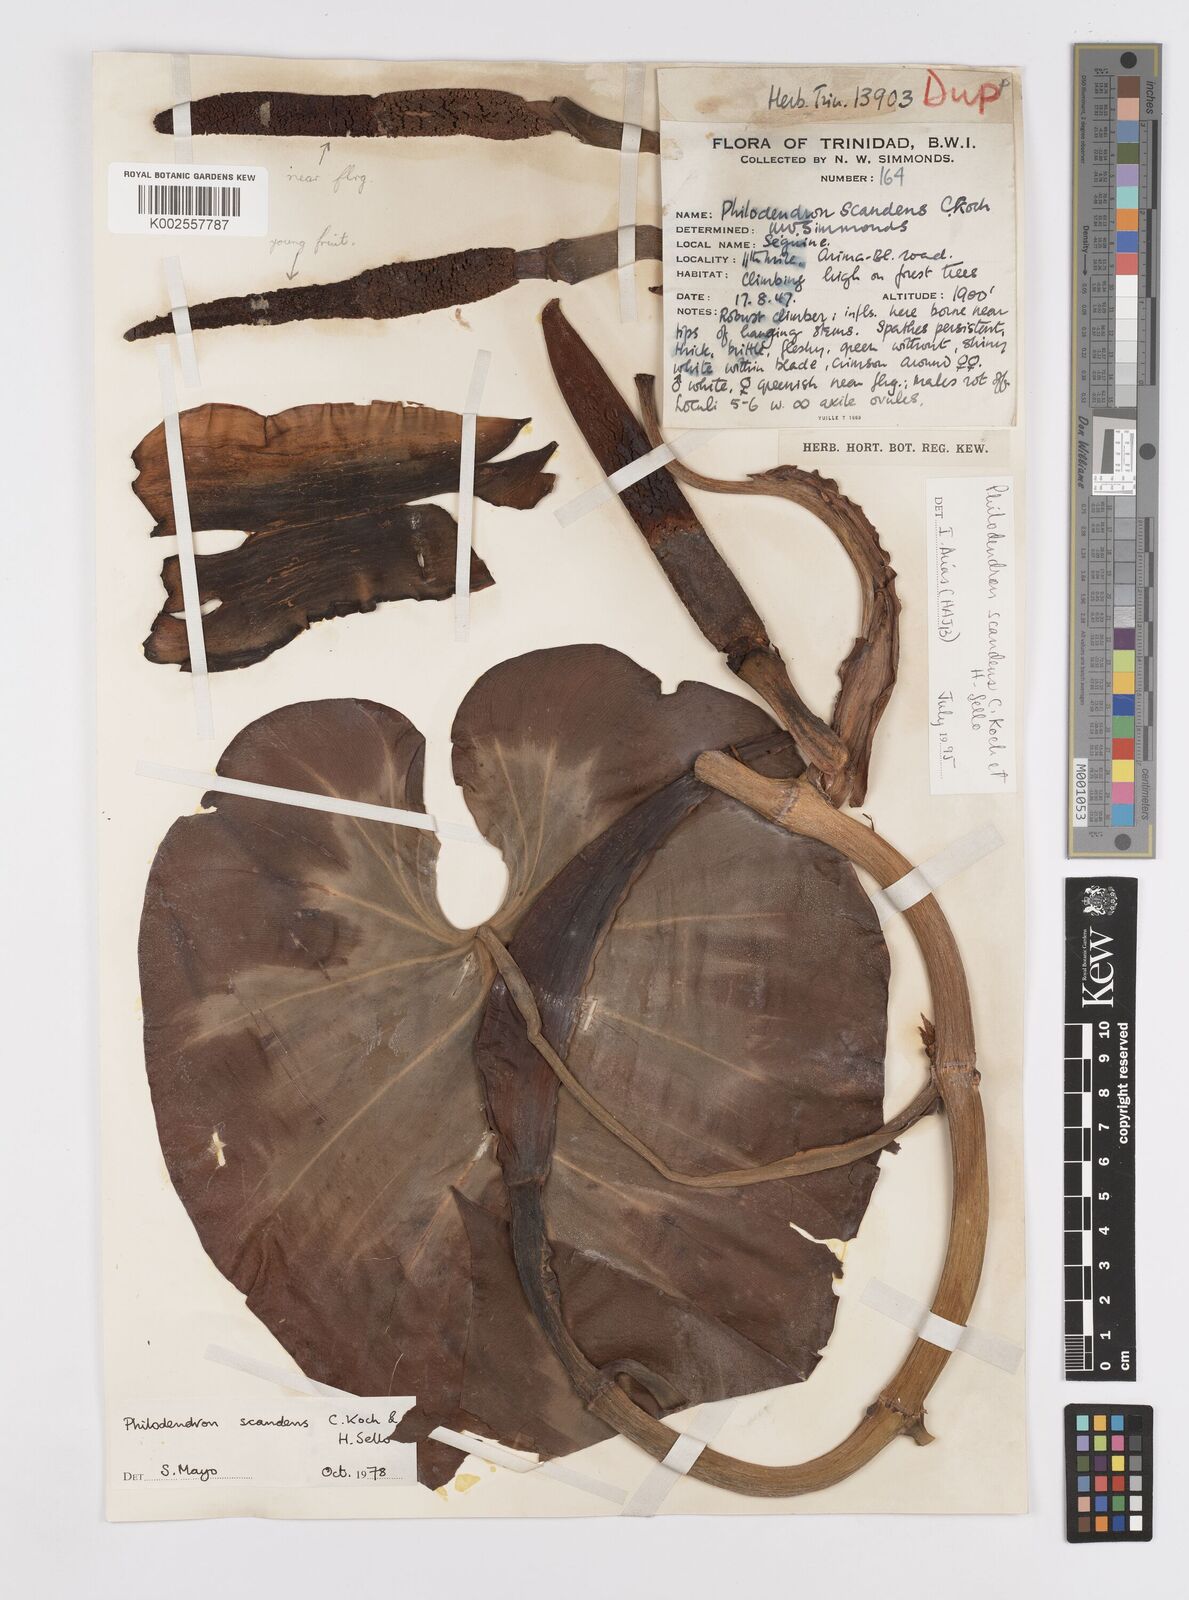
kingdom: Plantae
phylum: Tracheophyta
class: Liliopsida
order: Alismatales
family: Araceae
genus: Philodendron
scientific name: Philodendron hederaceum
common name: Vilevine
